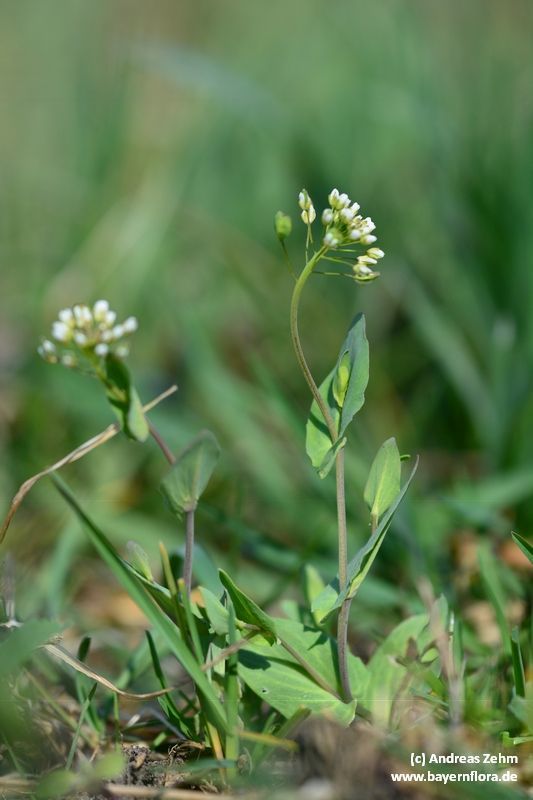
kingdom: Plantae
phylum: Tracheophyta
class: Magnoliopsida
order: Brassicales
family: Brassicaceae
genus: Noccaea
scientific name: Noccaea perfoliata
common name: Perfoliate pennycress
